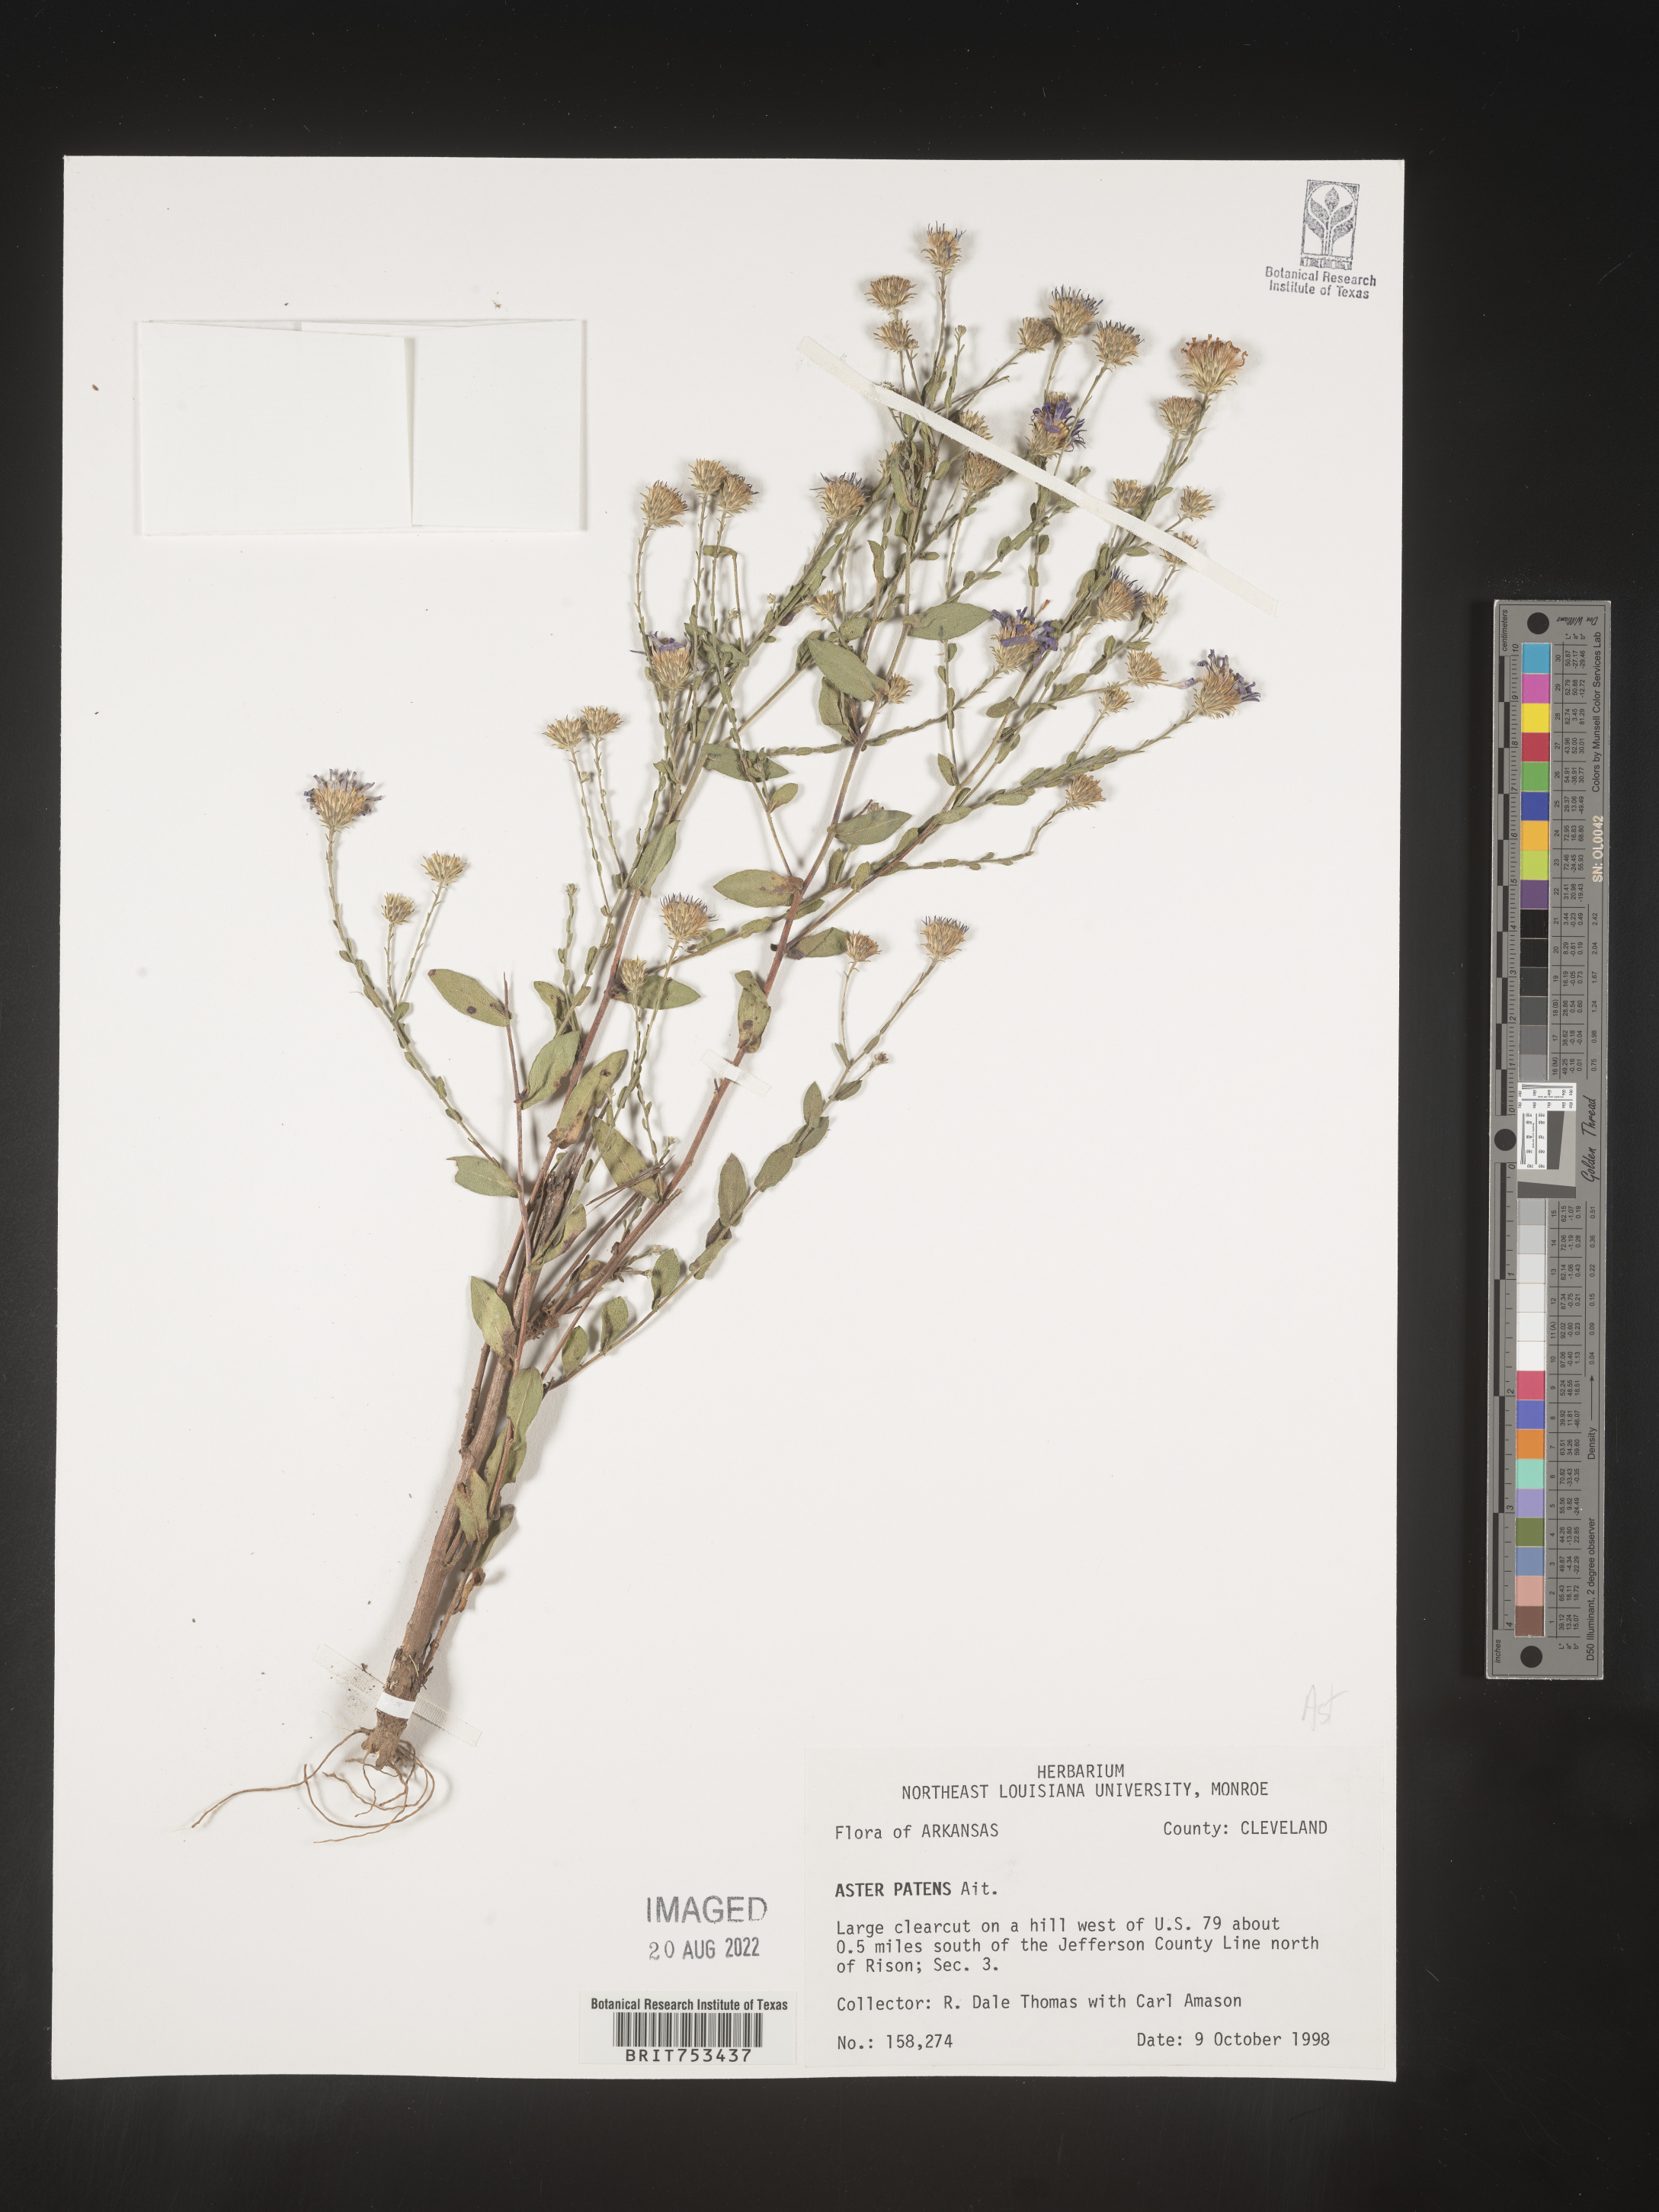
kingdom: Plantae
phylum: Tracheophyta
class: Magnoliopsida
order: Asterales
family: Asteraceae
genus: Symphyotrichum
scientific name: Symphyotrichum patens
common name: Late purple aster
